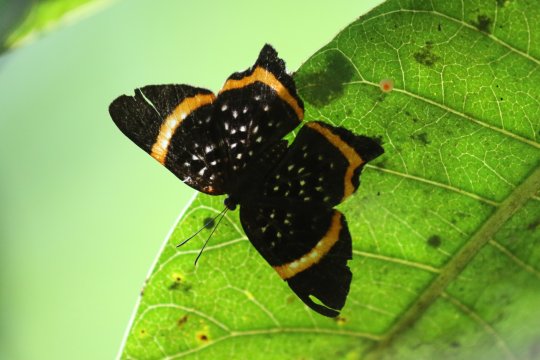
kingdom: Animalia
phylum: Arthropoda
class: Insecta
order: Lepidoptera
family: Riodinidae
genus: Riodina
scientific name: Riodina lysippus
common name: Lysippus Metalmark
